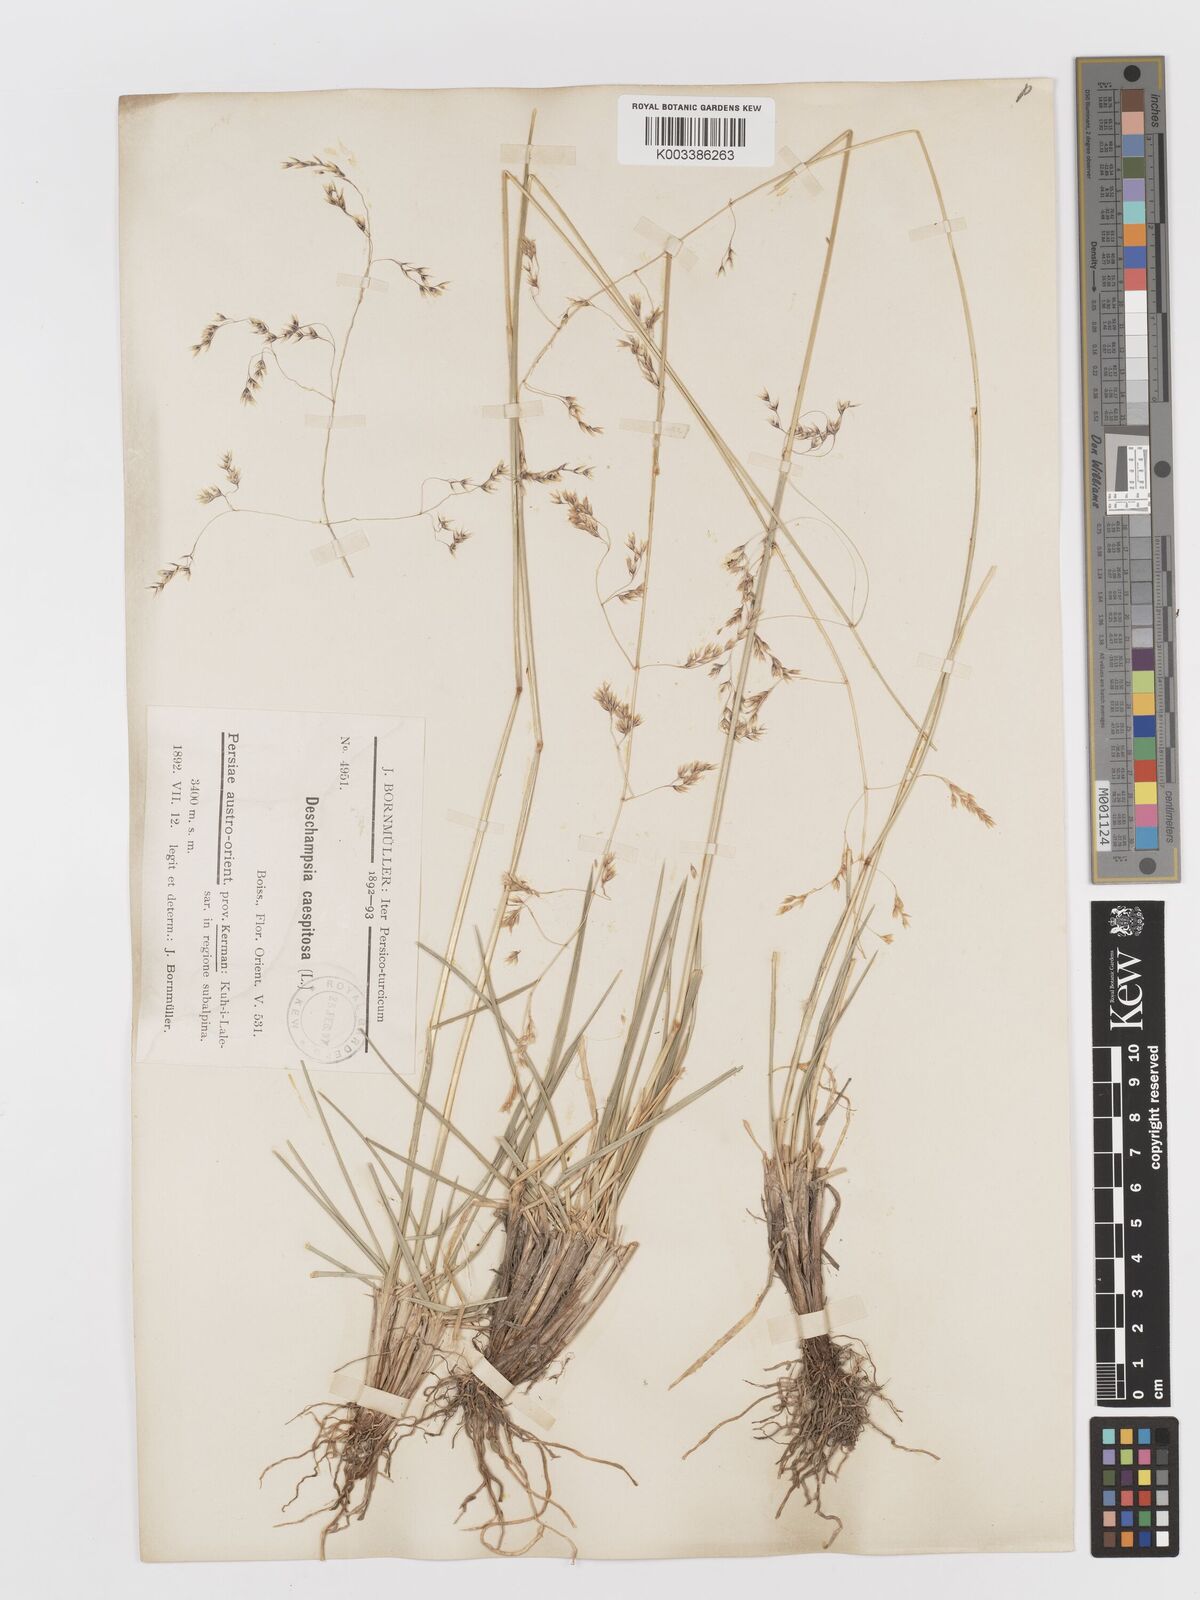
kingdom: Plantae
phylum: Tracheophyta
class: Liliopsida
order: Poales
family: Poaceae
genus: Deschampsia
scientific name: Deschampsia cespitosa
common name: Tufted hair-grass
